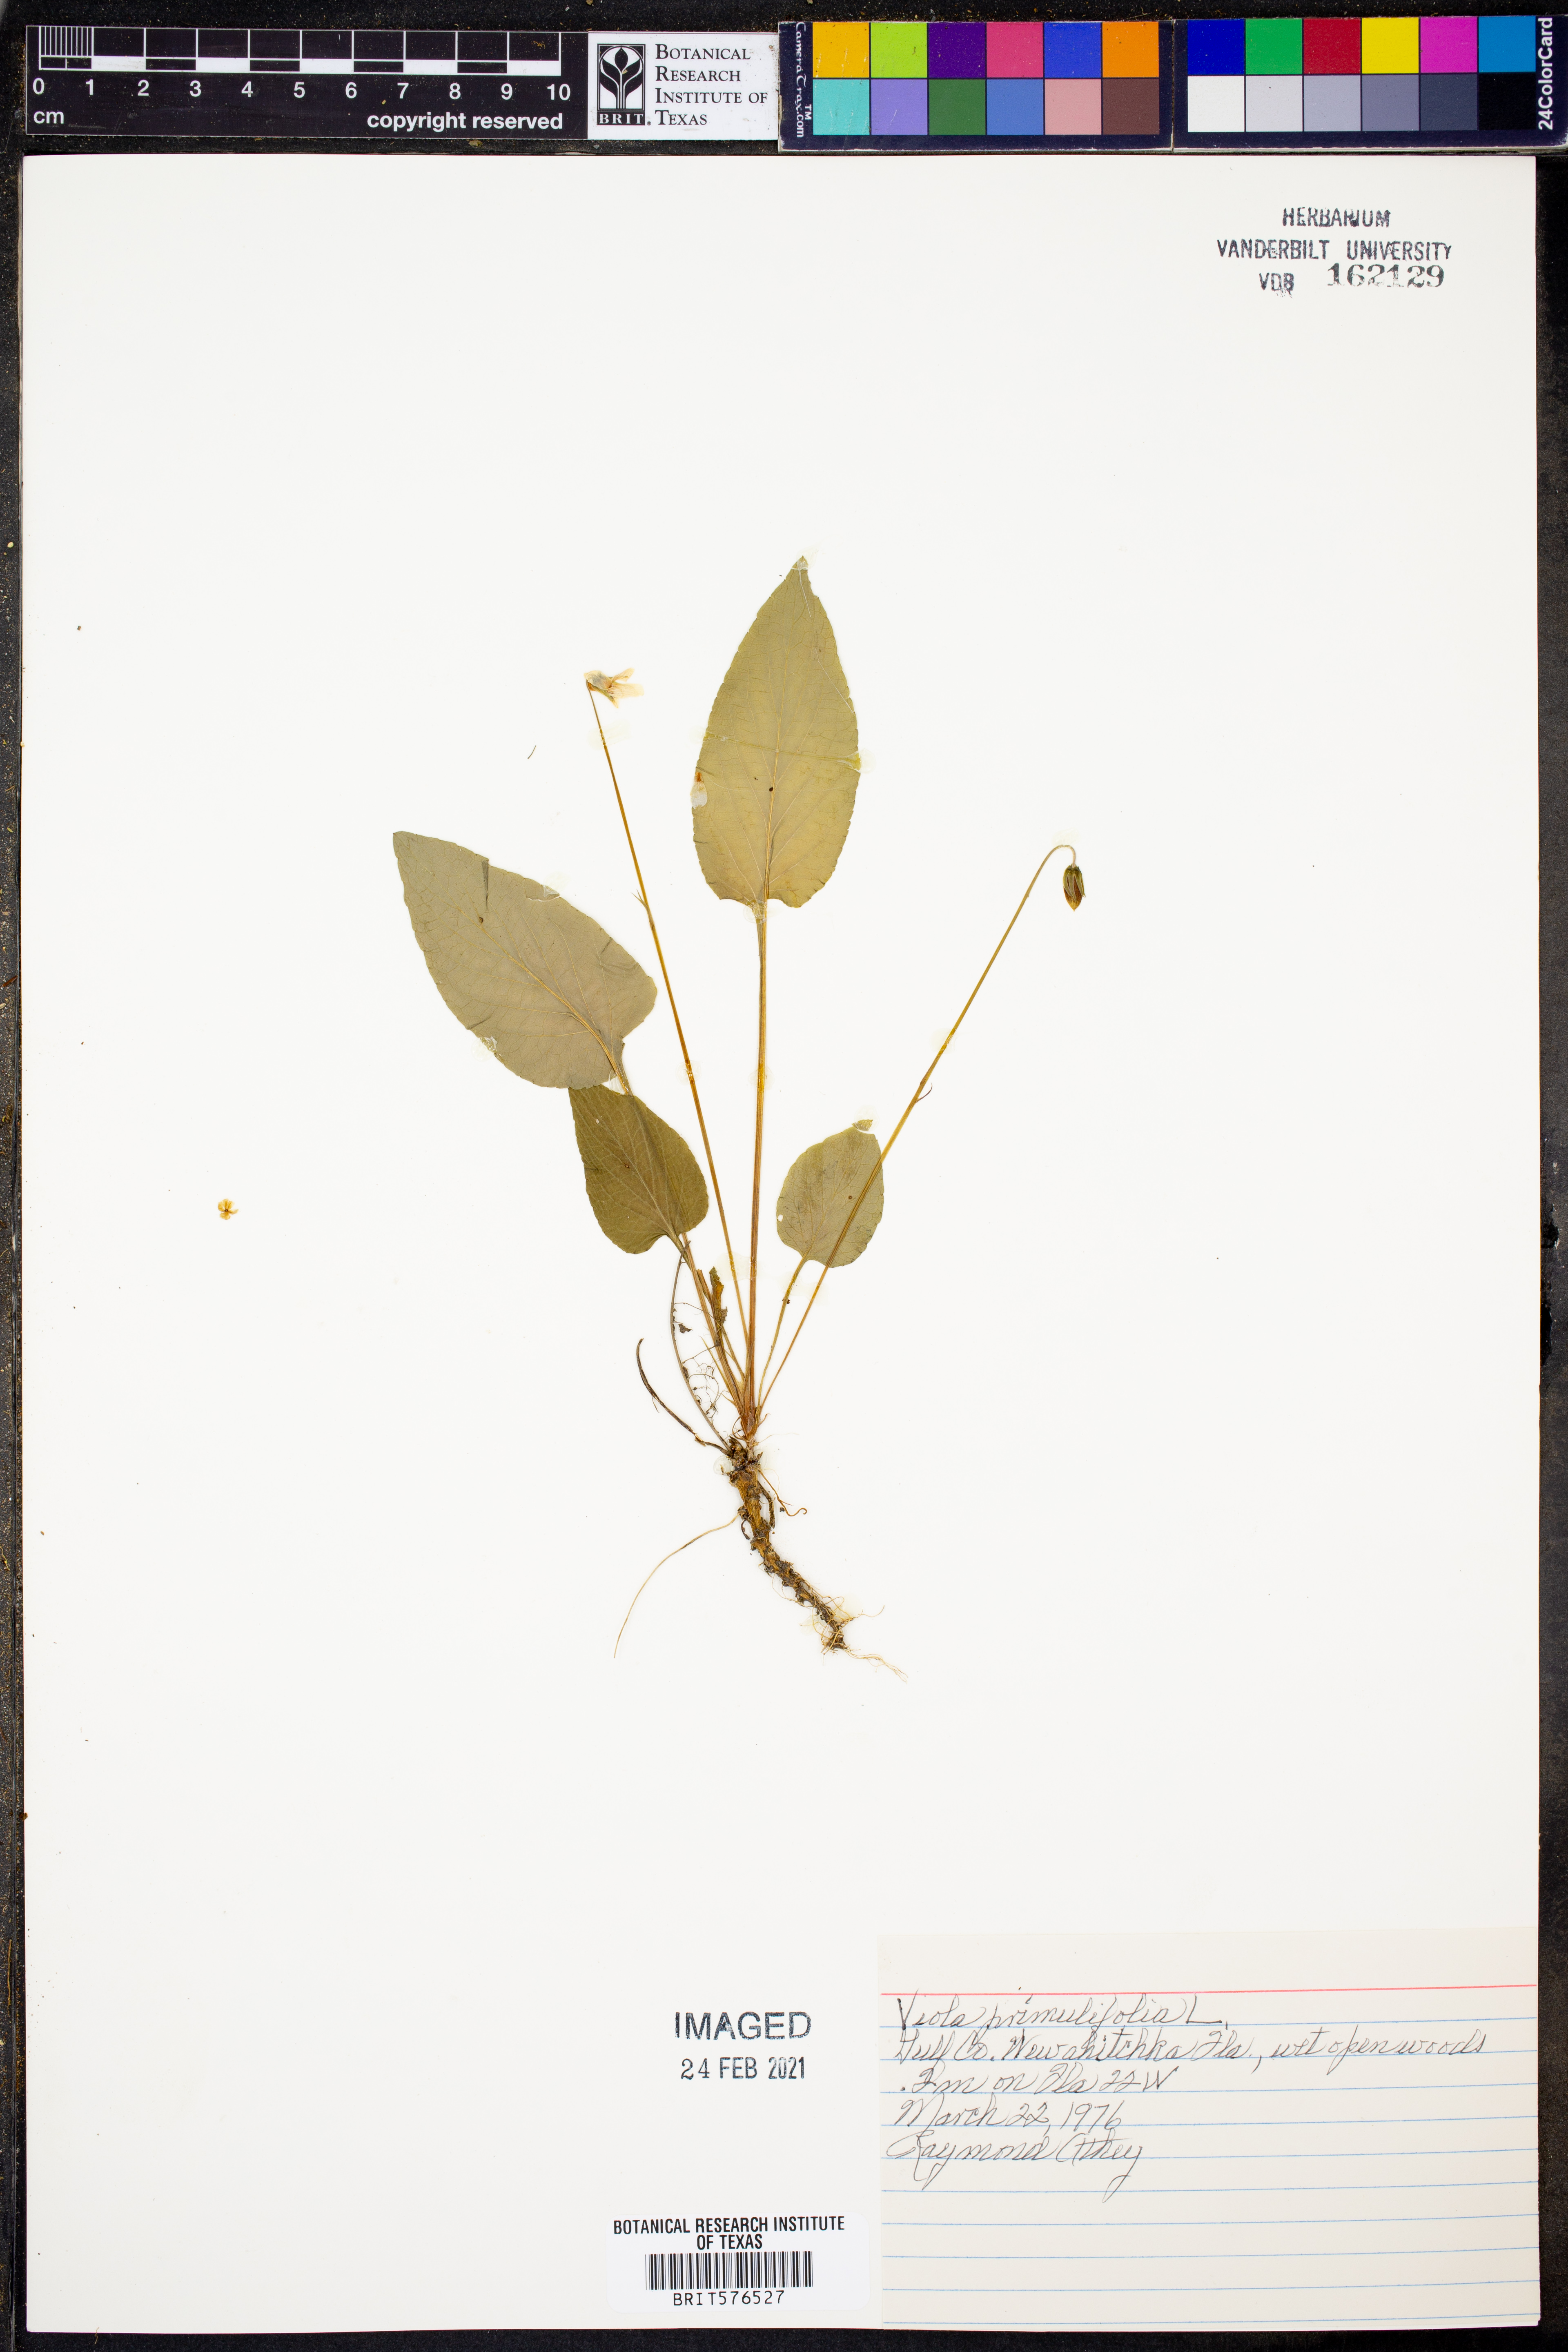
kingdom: Plantae
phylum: Tracheophyta
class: Magnoliopsida
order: Malpighiales
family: Violaceae
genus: Viola
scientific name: Viola primulifolia
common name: Primrose-leaf violet
